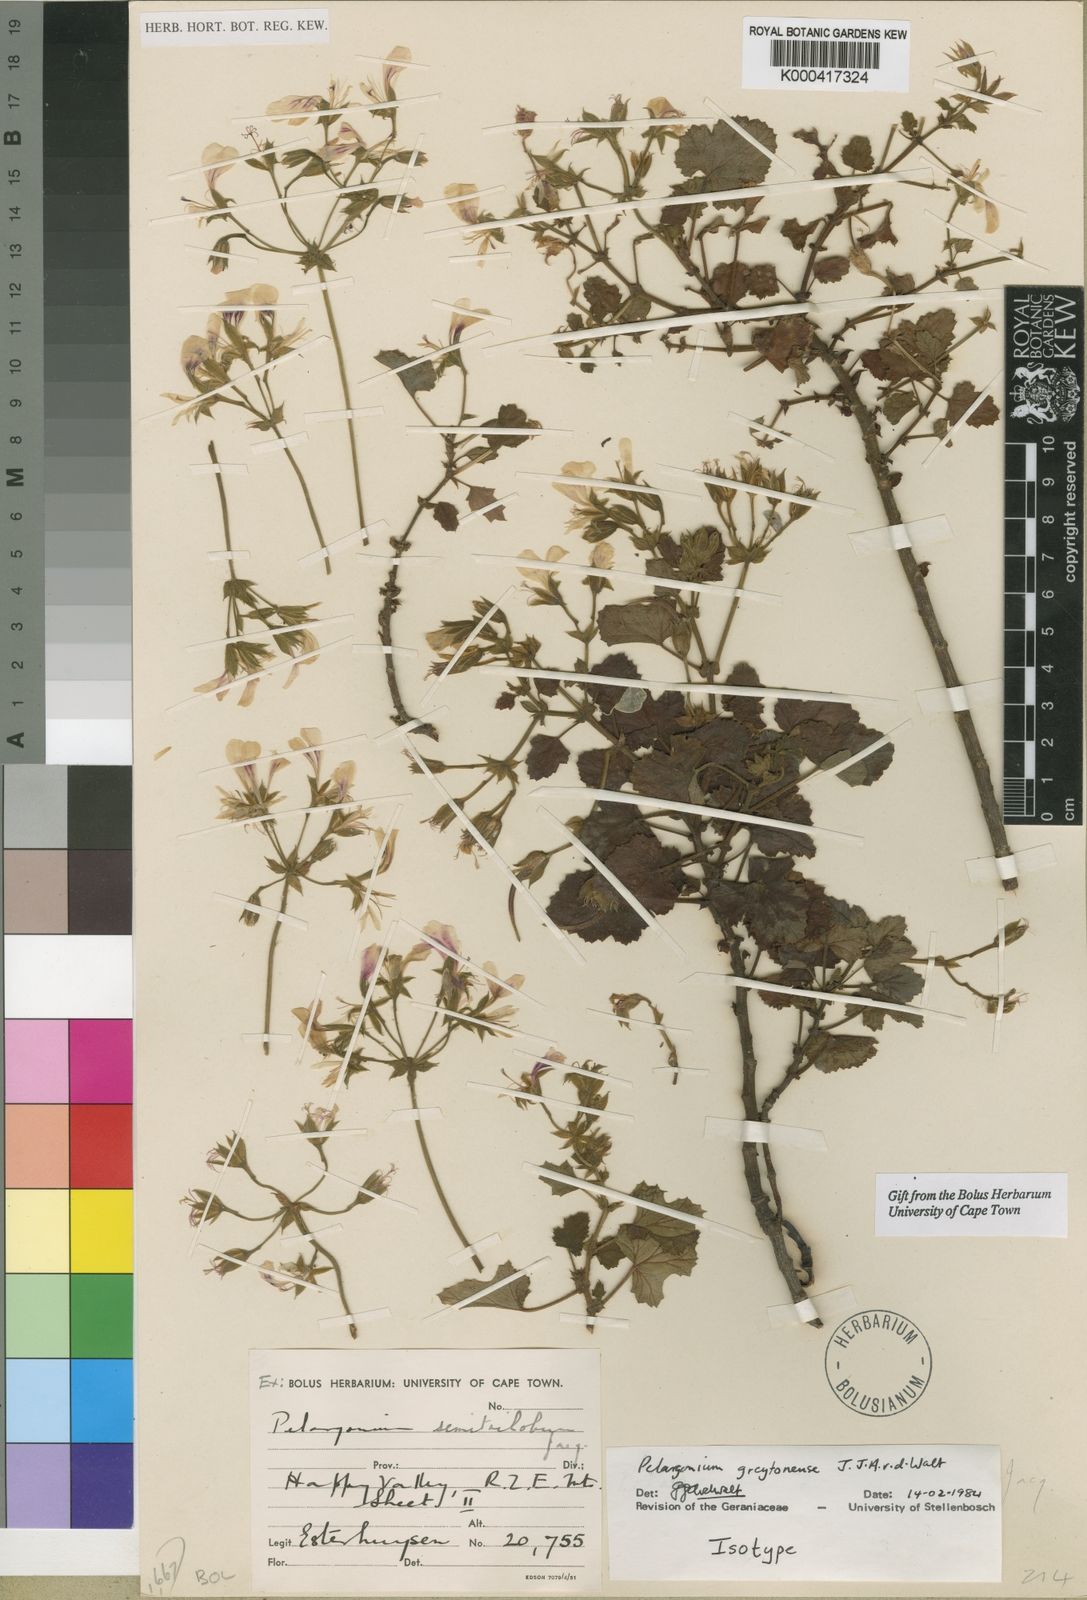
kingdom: Plantae
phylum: Tracheophyta
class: Magnoliopsida
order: Geraniales
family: Geraniaceae
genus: Pelargonium
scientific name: Pelargonium greytonense
